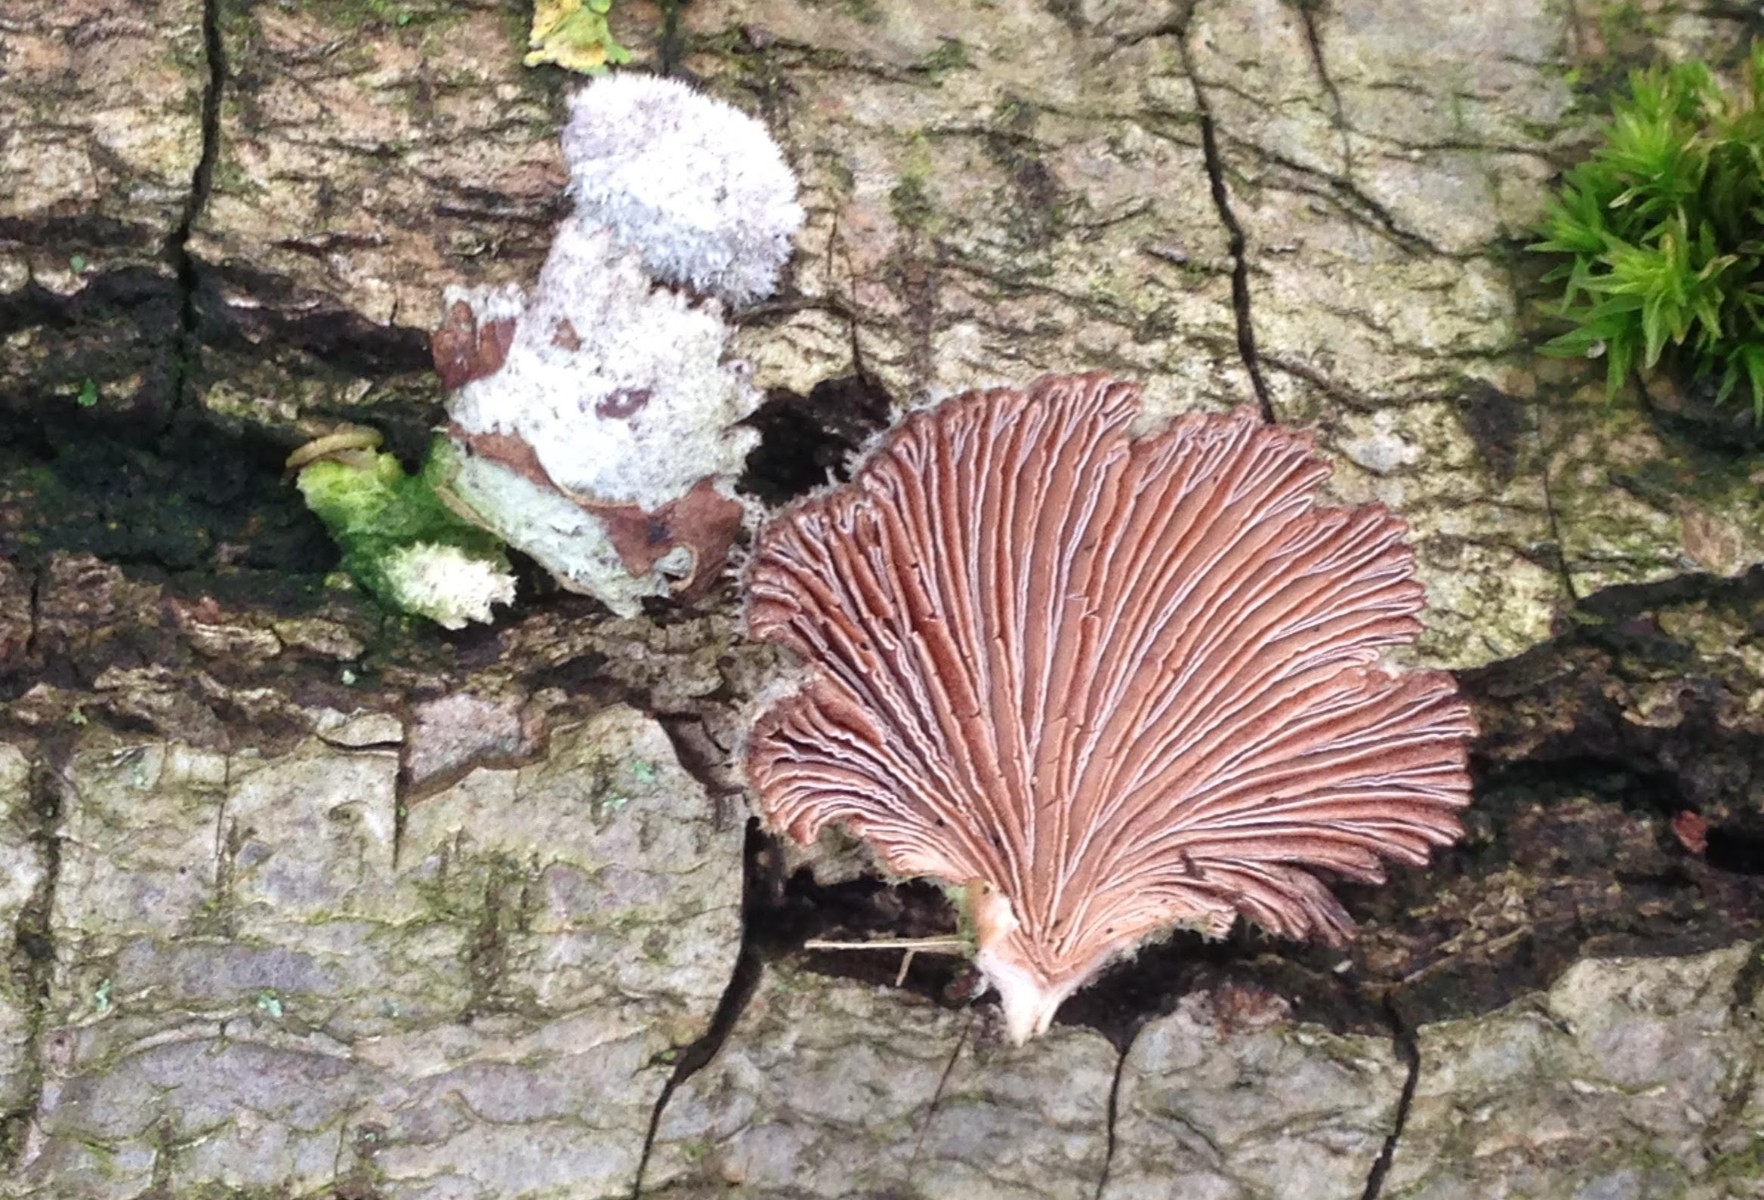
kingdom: Fungi
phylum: Basidiomycota
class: Agaricomycetes
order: Agaricales
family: Schizophyllaceae
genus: Schizophyllum
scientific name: Schizophyllum commune
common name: kløvblad
